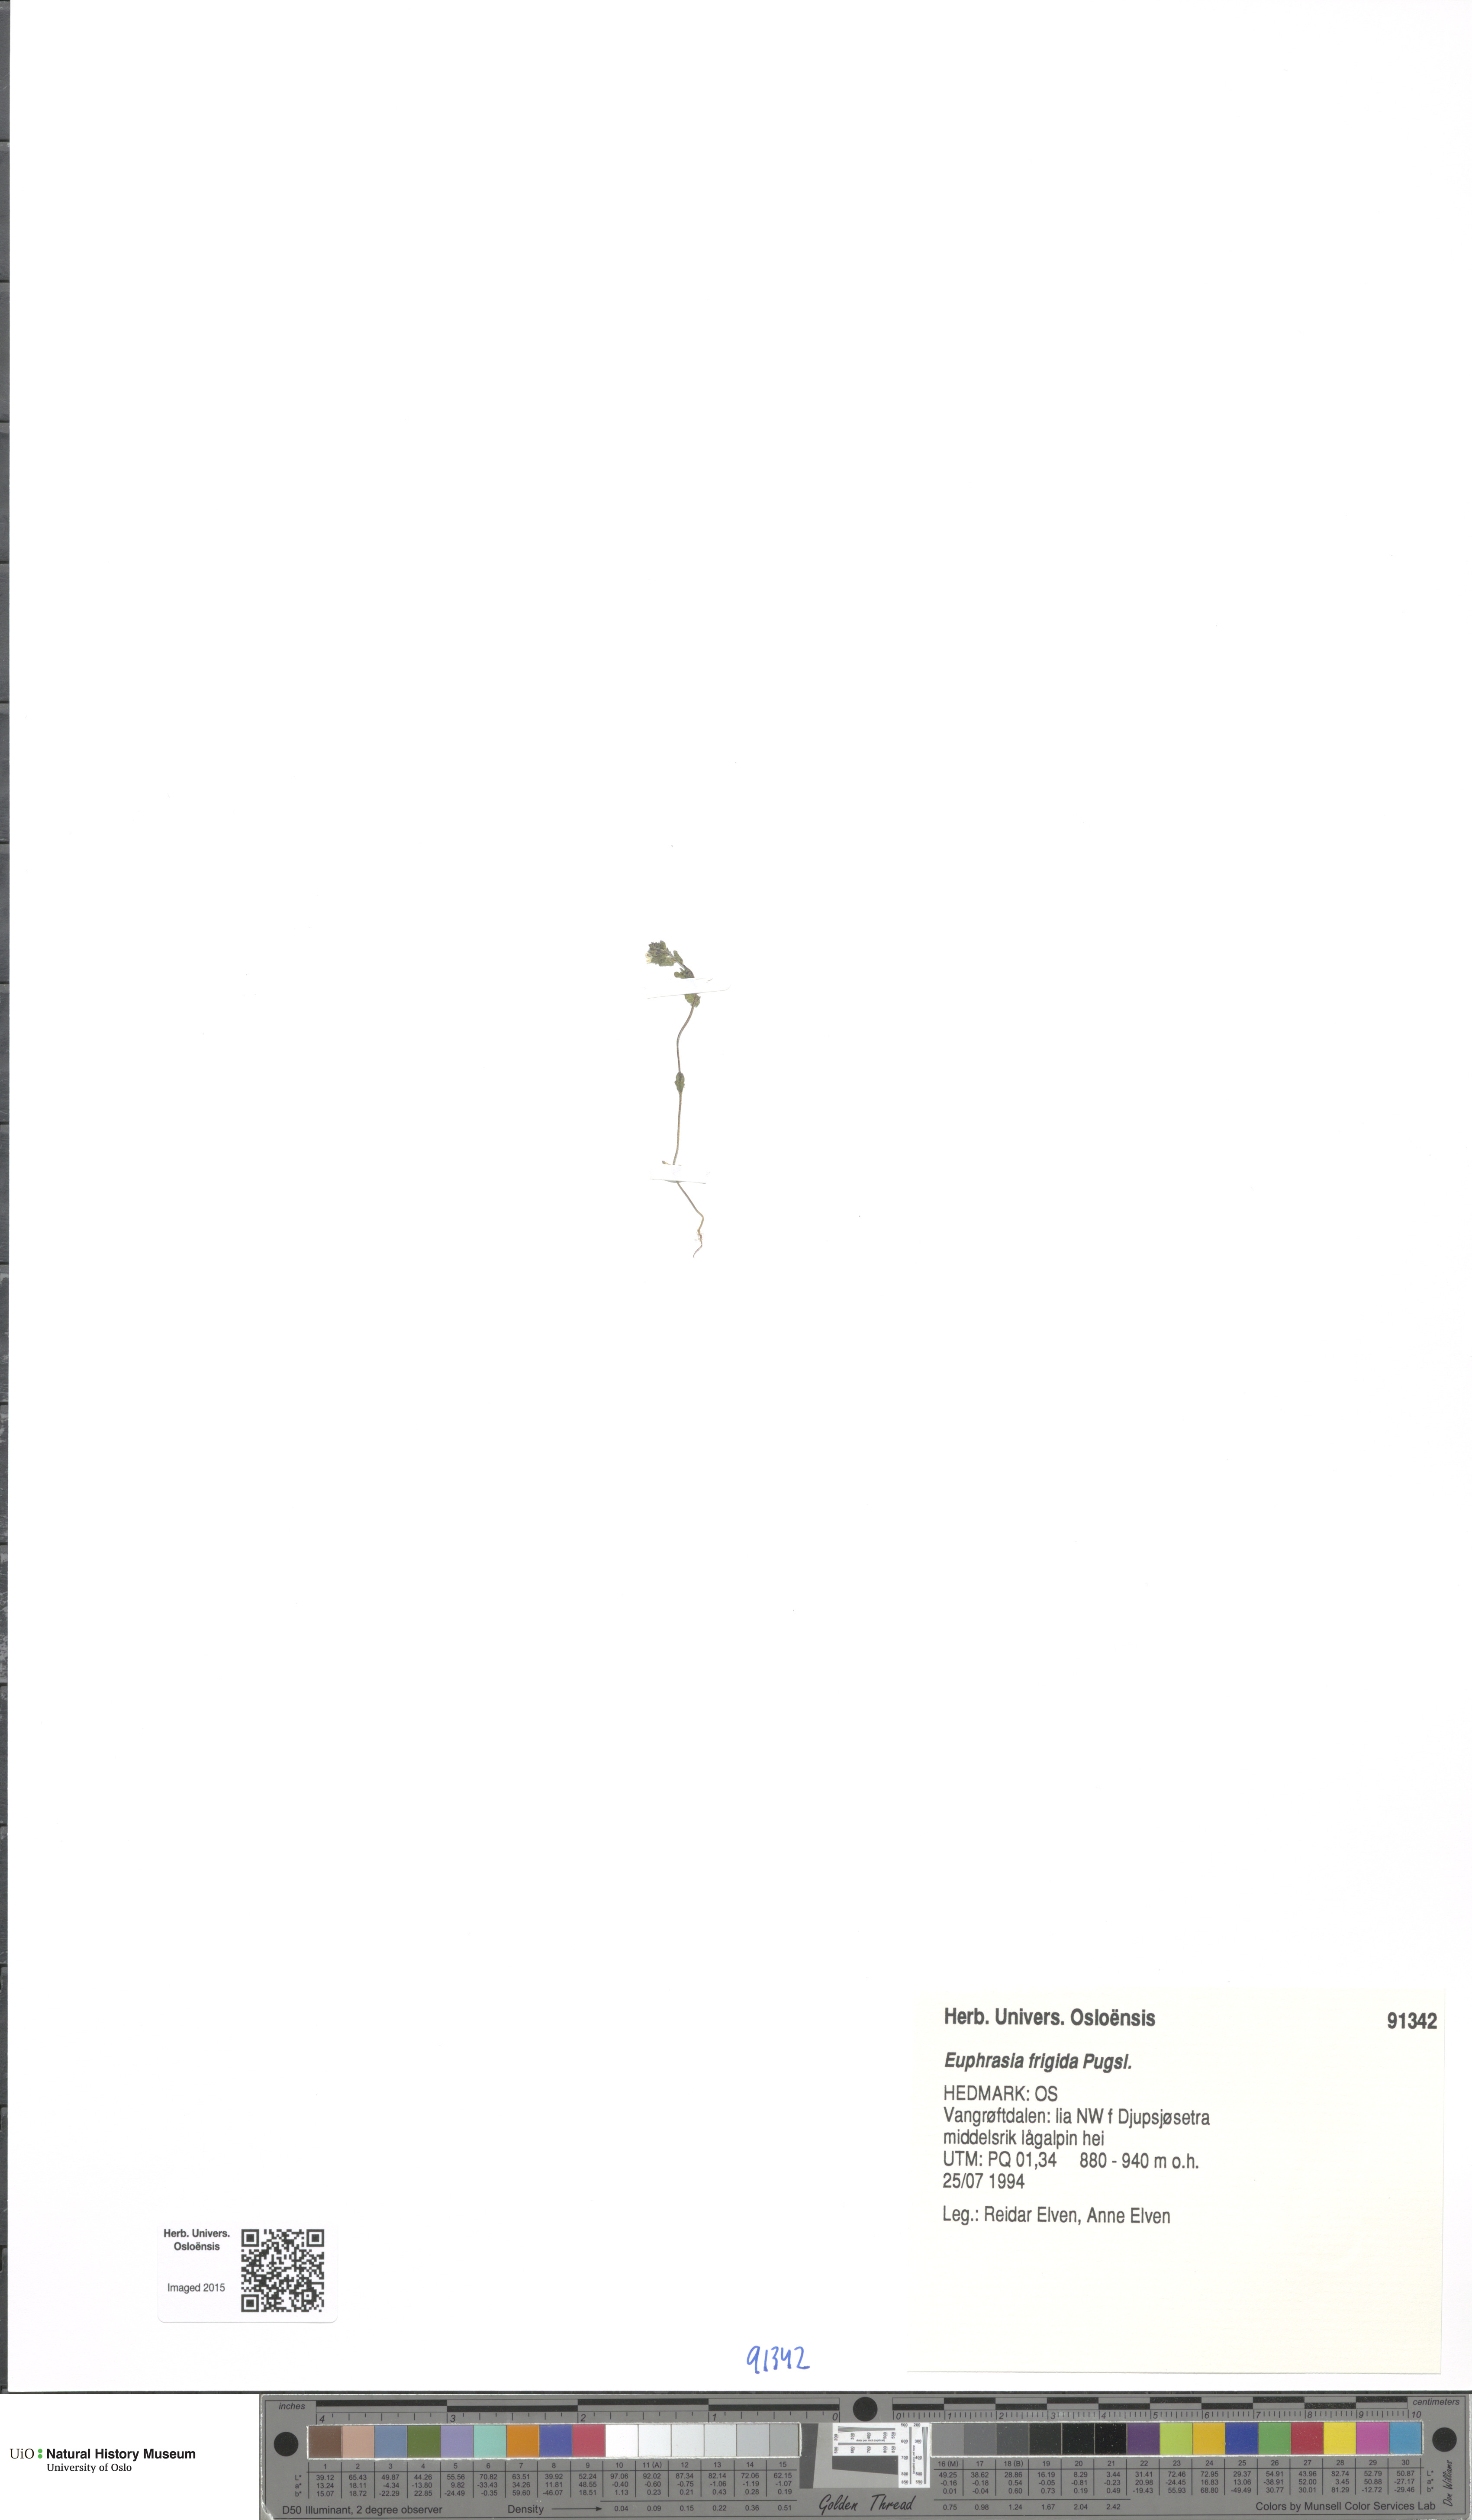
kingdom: Plantae
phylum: Tracheophyta
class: Magnoliopsida
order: Lamiales
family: Orobanchaceae
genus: Euphrasia
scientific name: Euphrasia frigida
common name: An eyebright
